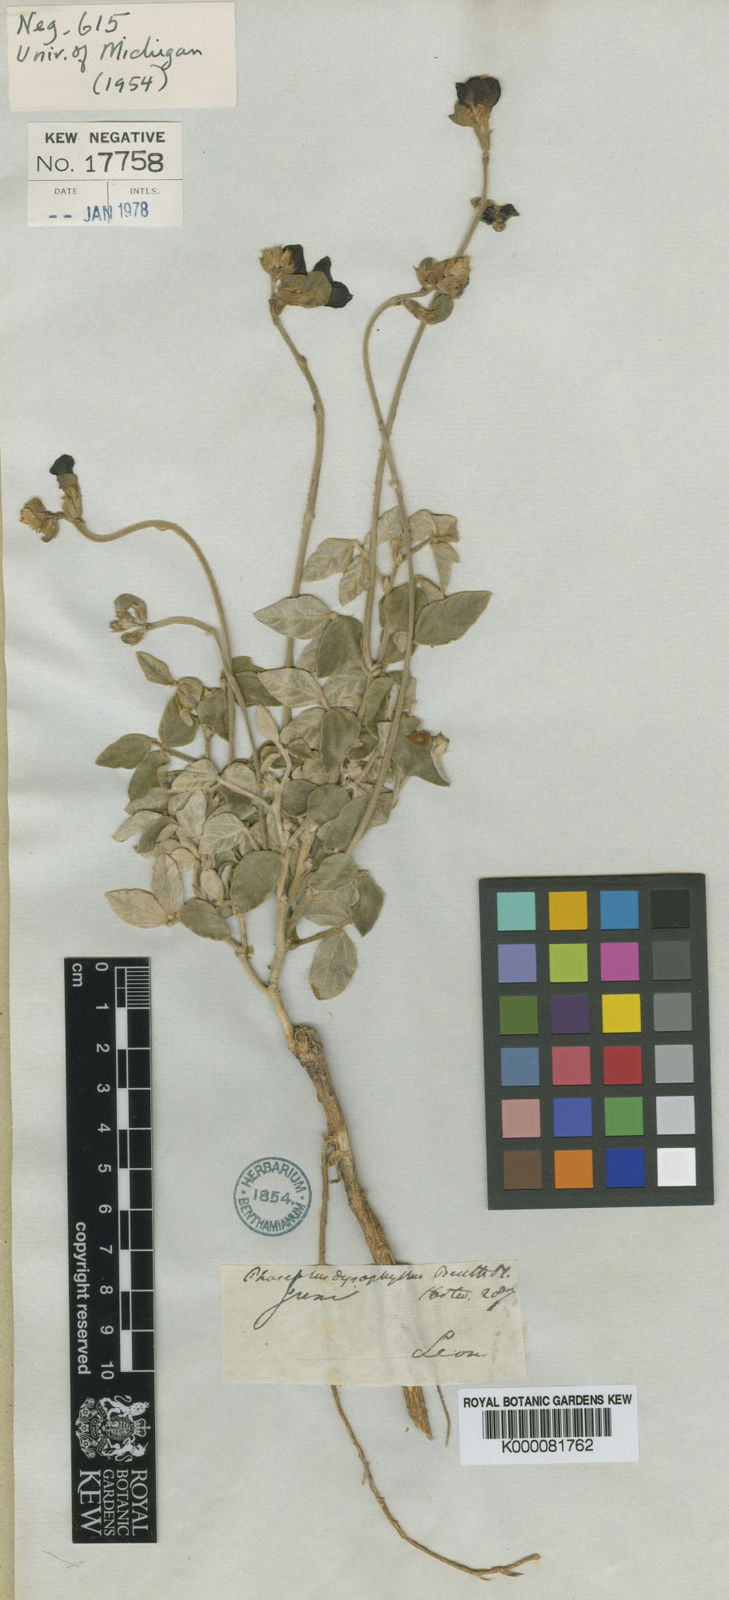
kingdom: Plantae
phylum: Tracheophyta
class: Magnoliopsida
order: Fabales
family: Fabaceae
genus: Macroptilium
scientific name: Macroptilium atropurpureum
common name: Purple bushbean
